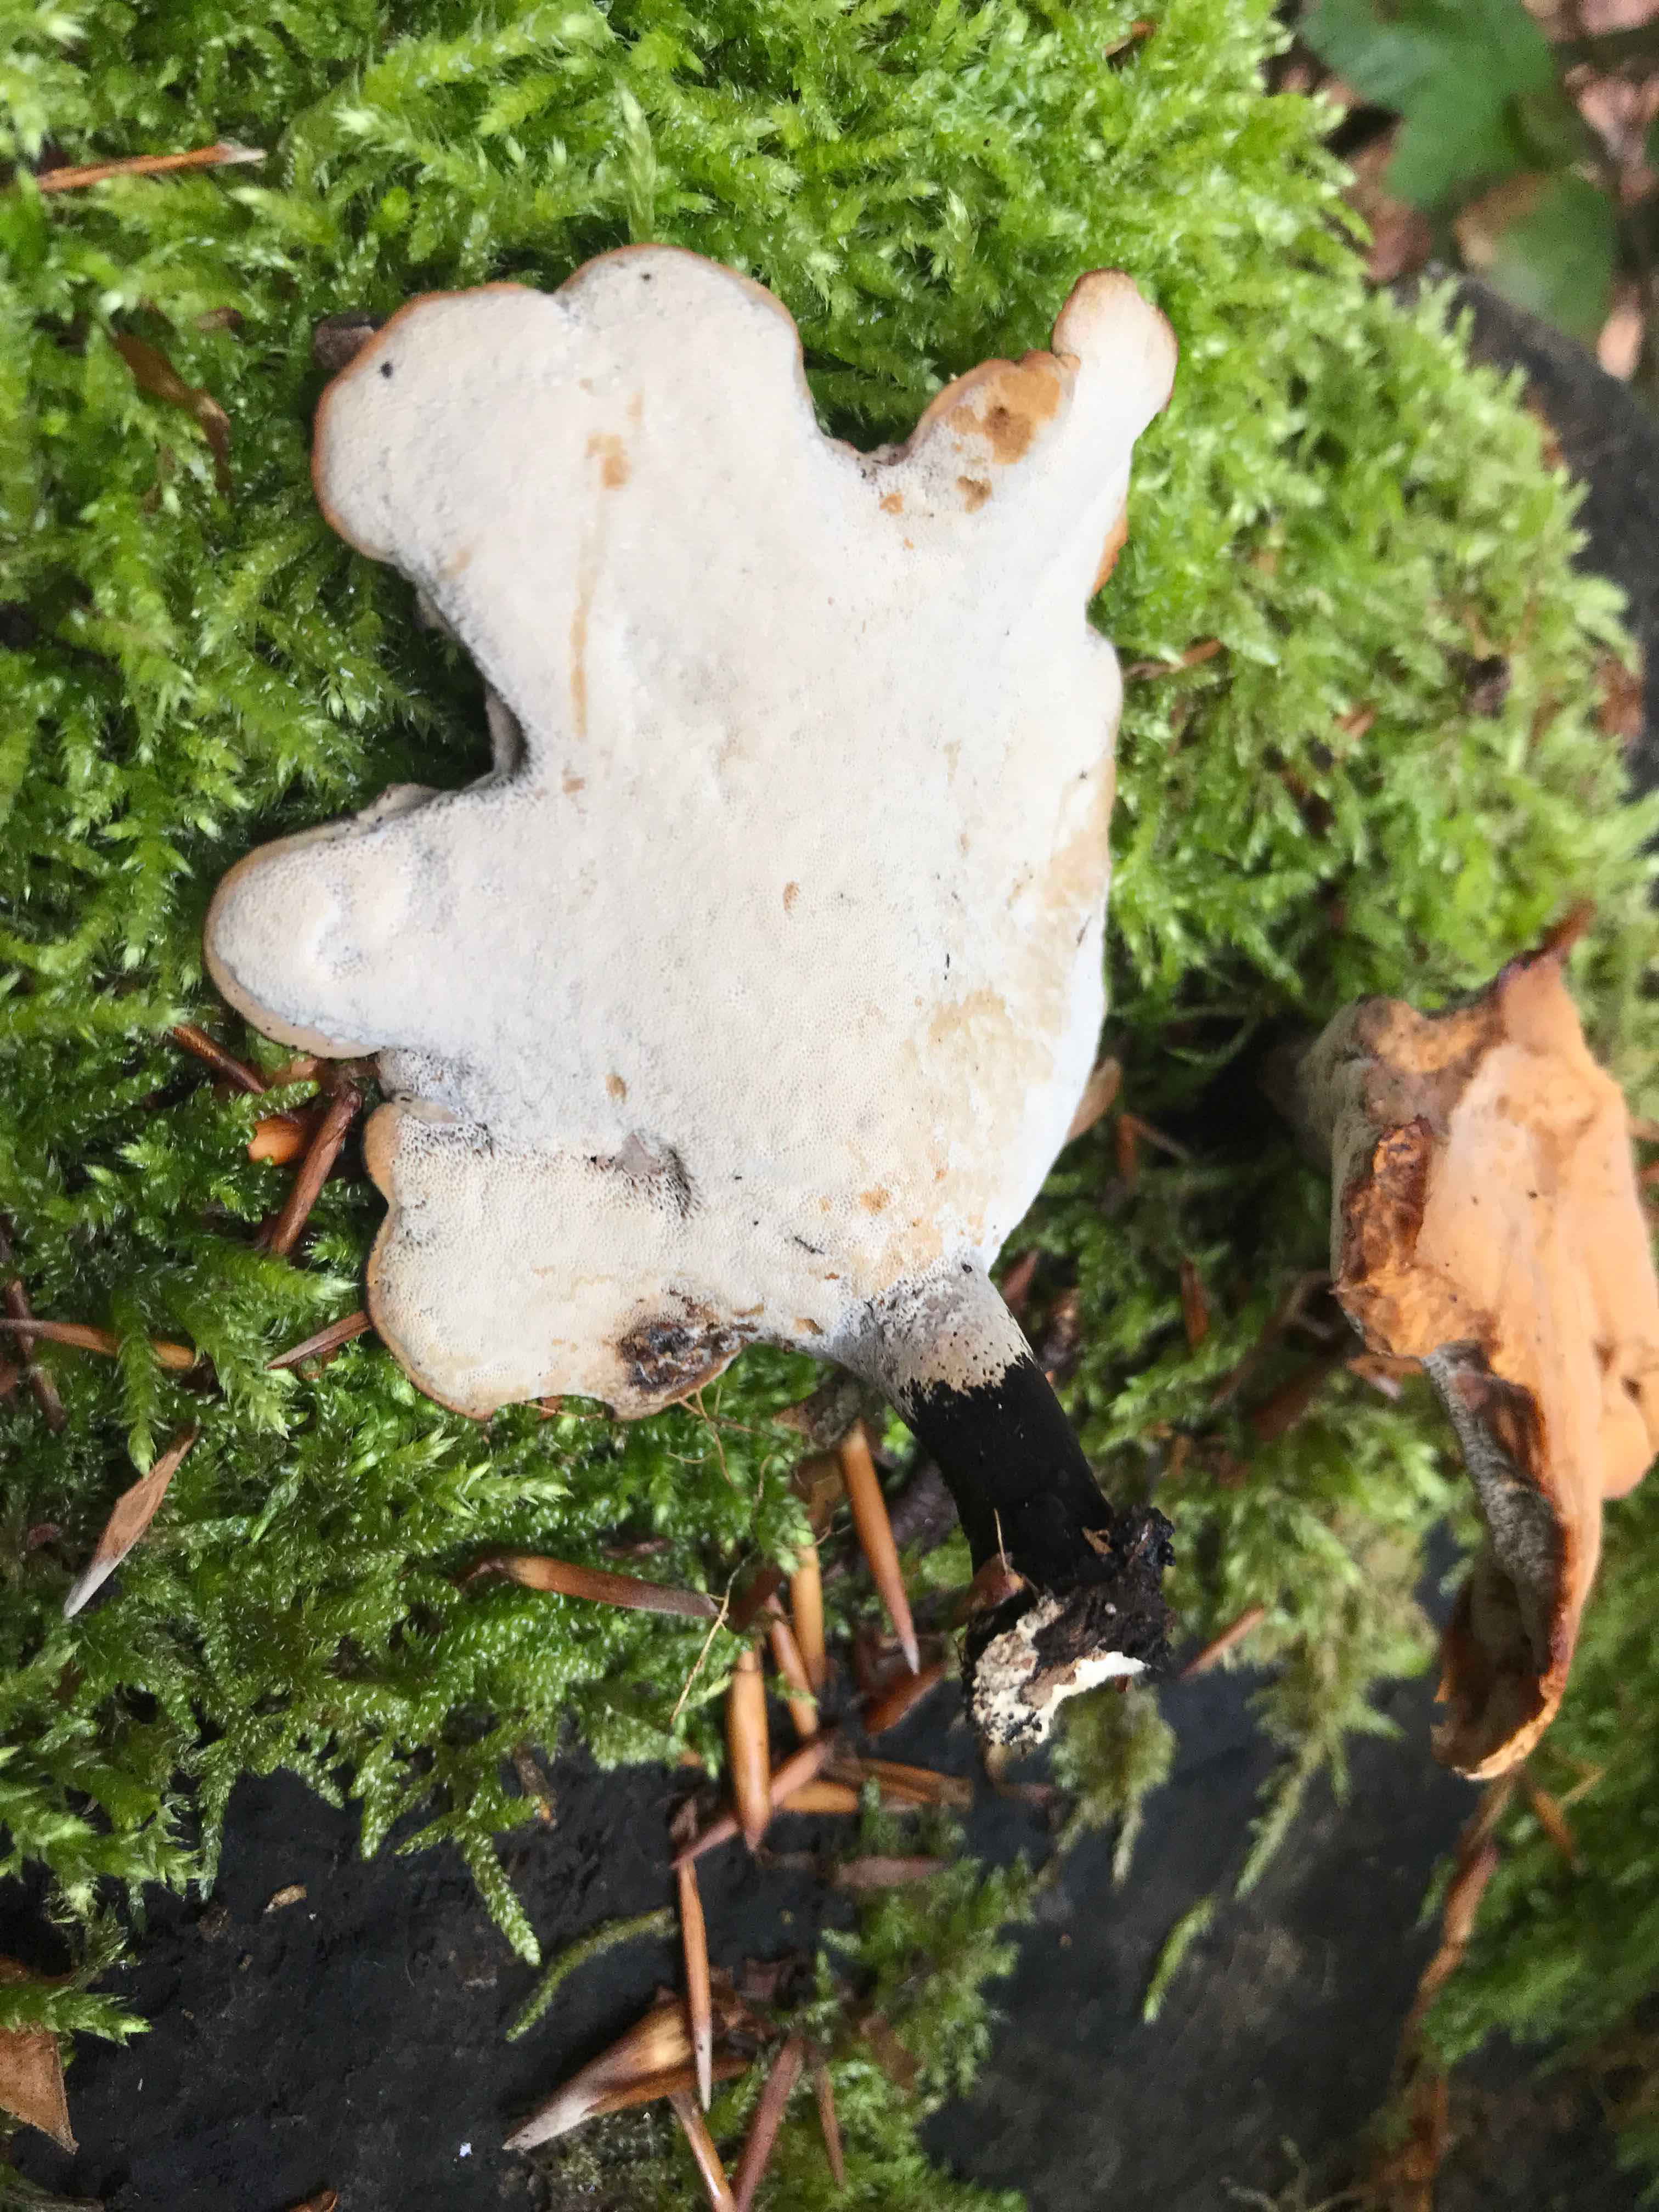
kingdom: Fungi
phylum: Basidiomycota
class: Agaricomycetes
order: Polyporales
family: Polyporaceae
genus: Cerioporus
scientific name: Cerioporus varius
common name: foranderlig stilkporesvamp
